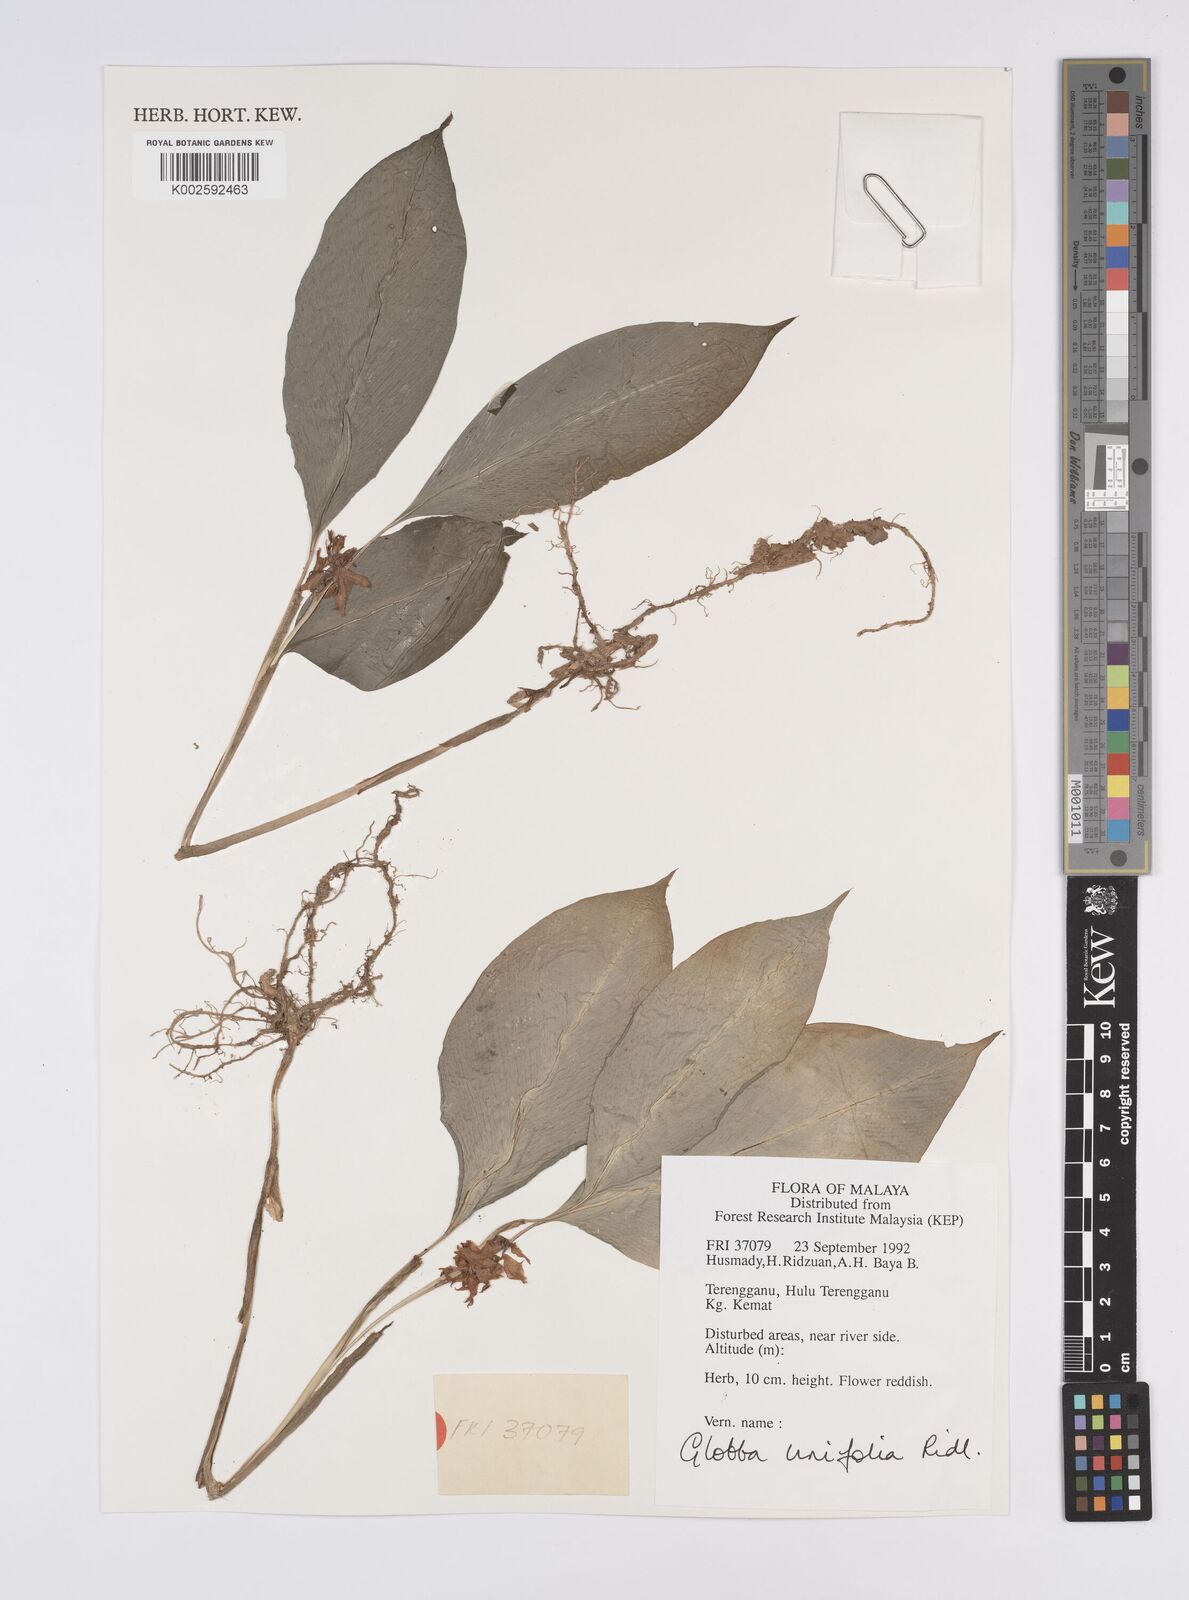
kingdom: Plantae
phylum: Tracheophyta
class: Liliopsida
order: Zingiberales
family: Zingiberaceae
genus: Globba
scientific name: Globba unifolia
